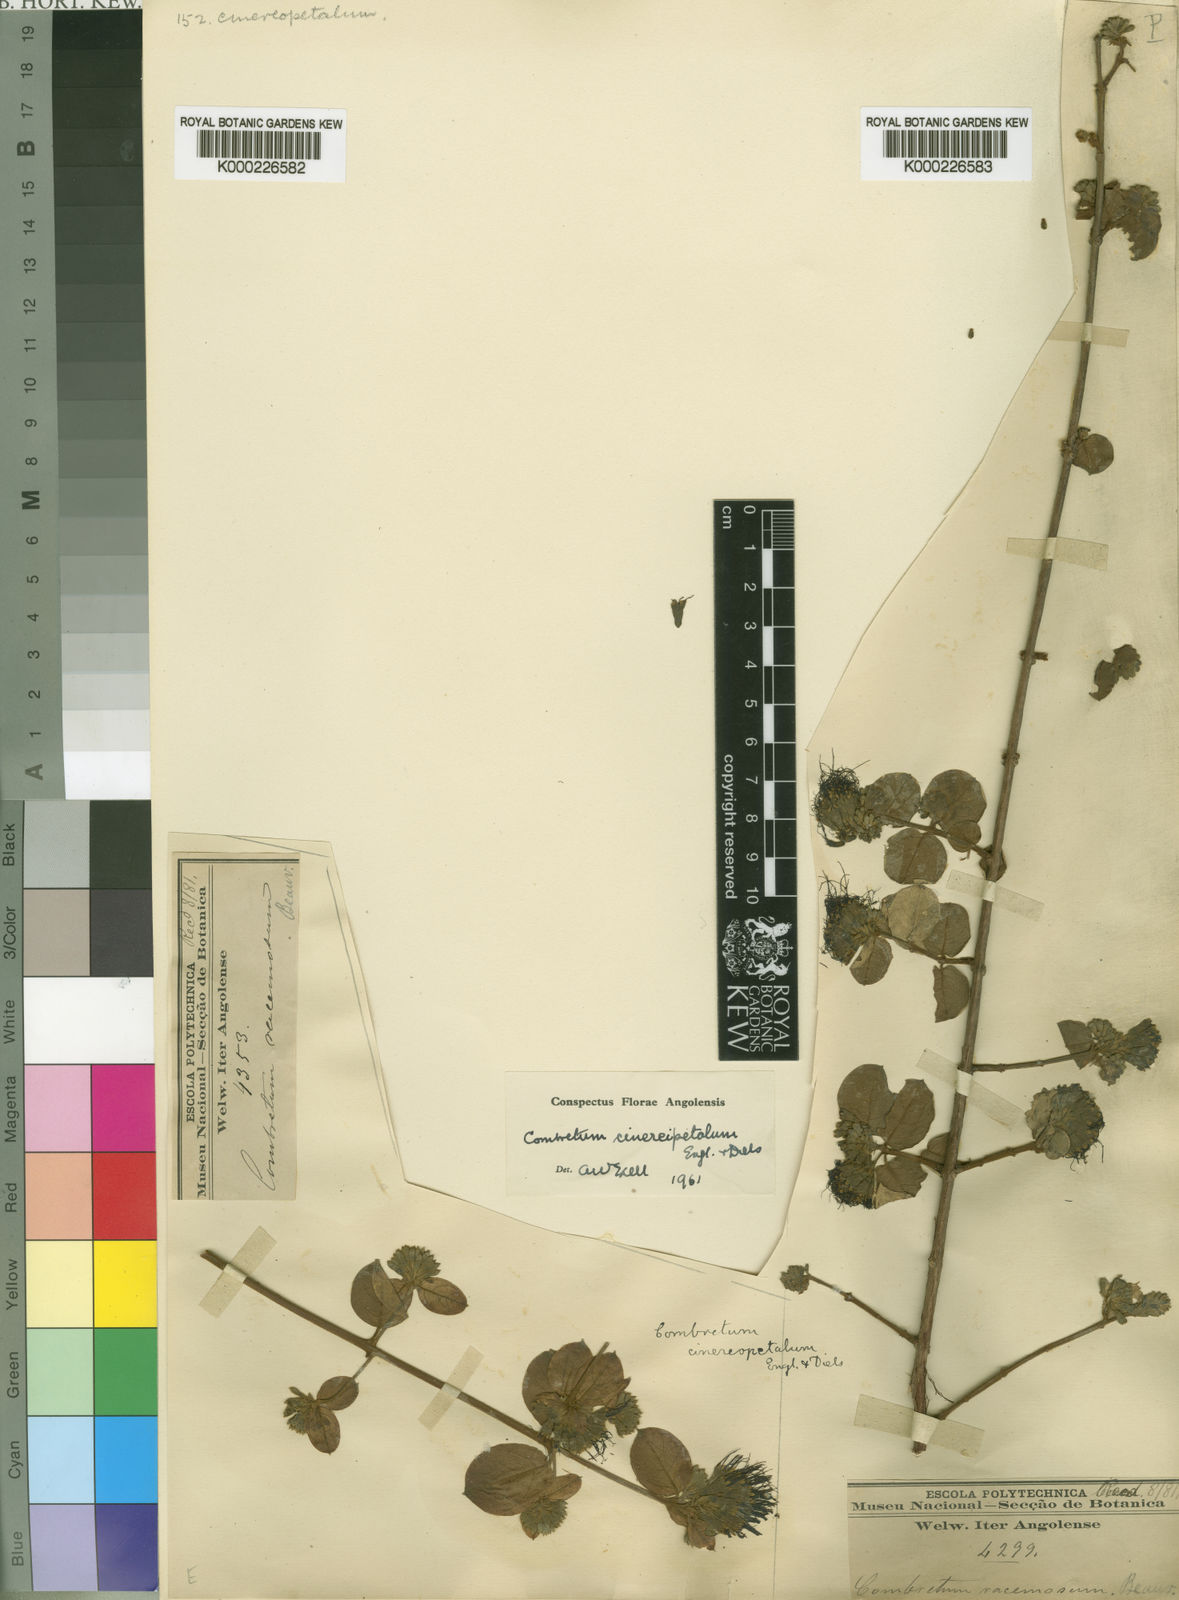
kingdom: Plantae
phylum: Tracheophyta
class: Magnoliopsida
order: Myrtales
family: Combretaceae
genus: Combretum
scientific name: Combretum cinereopetalum
